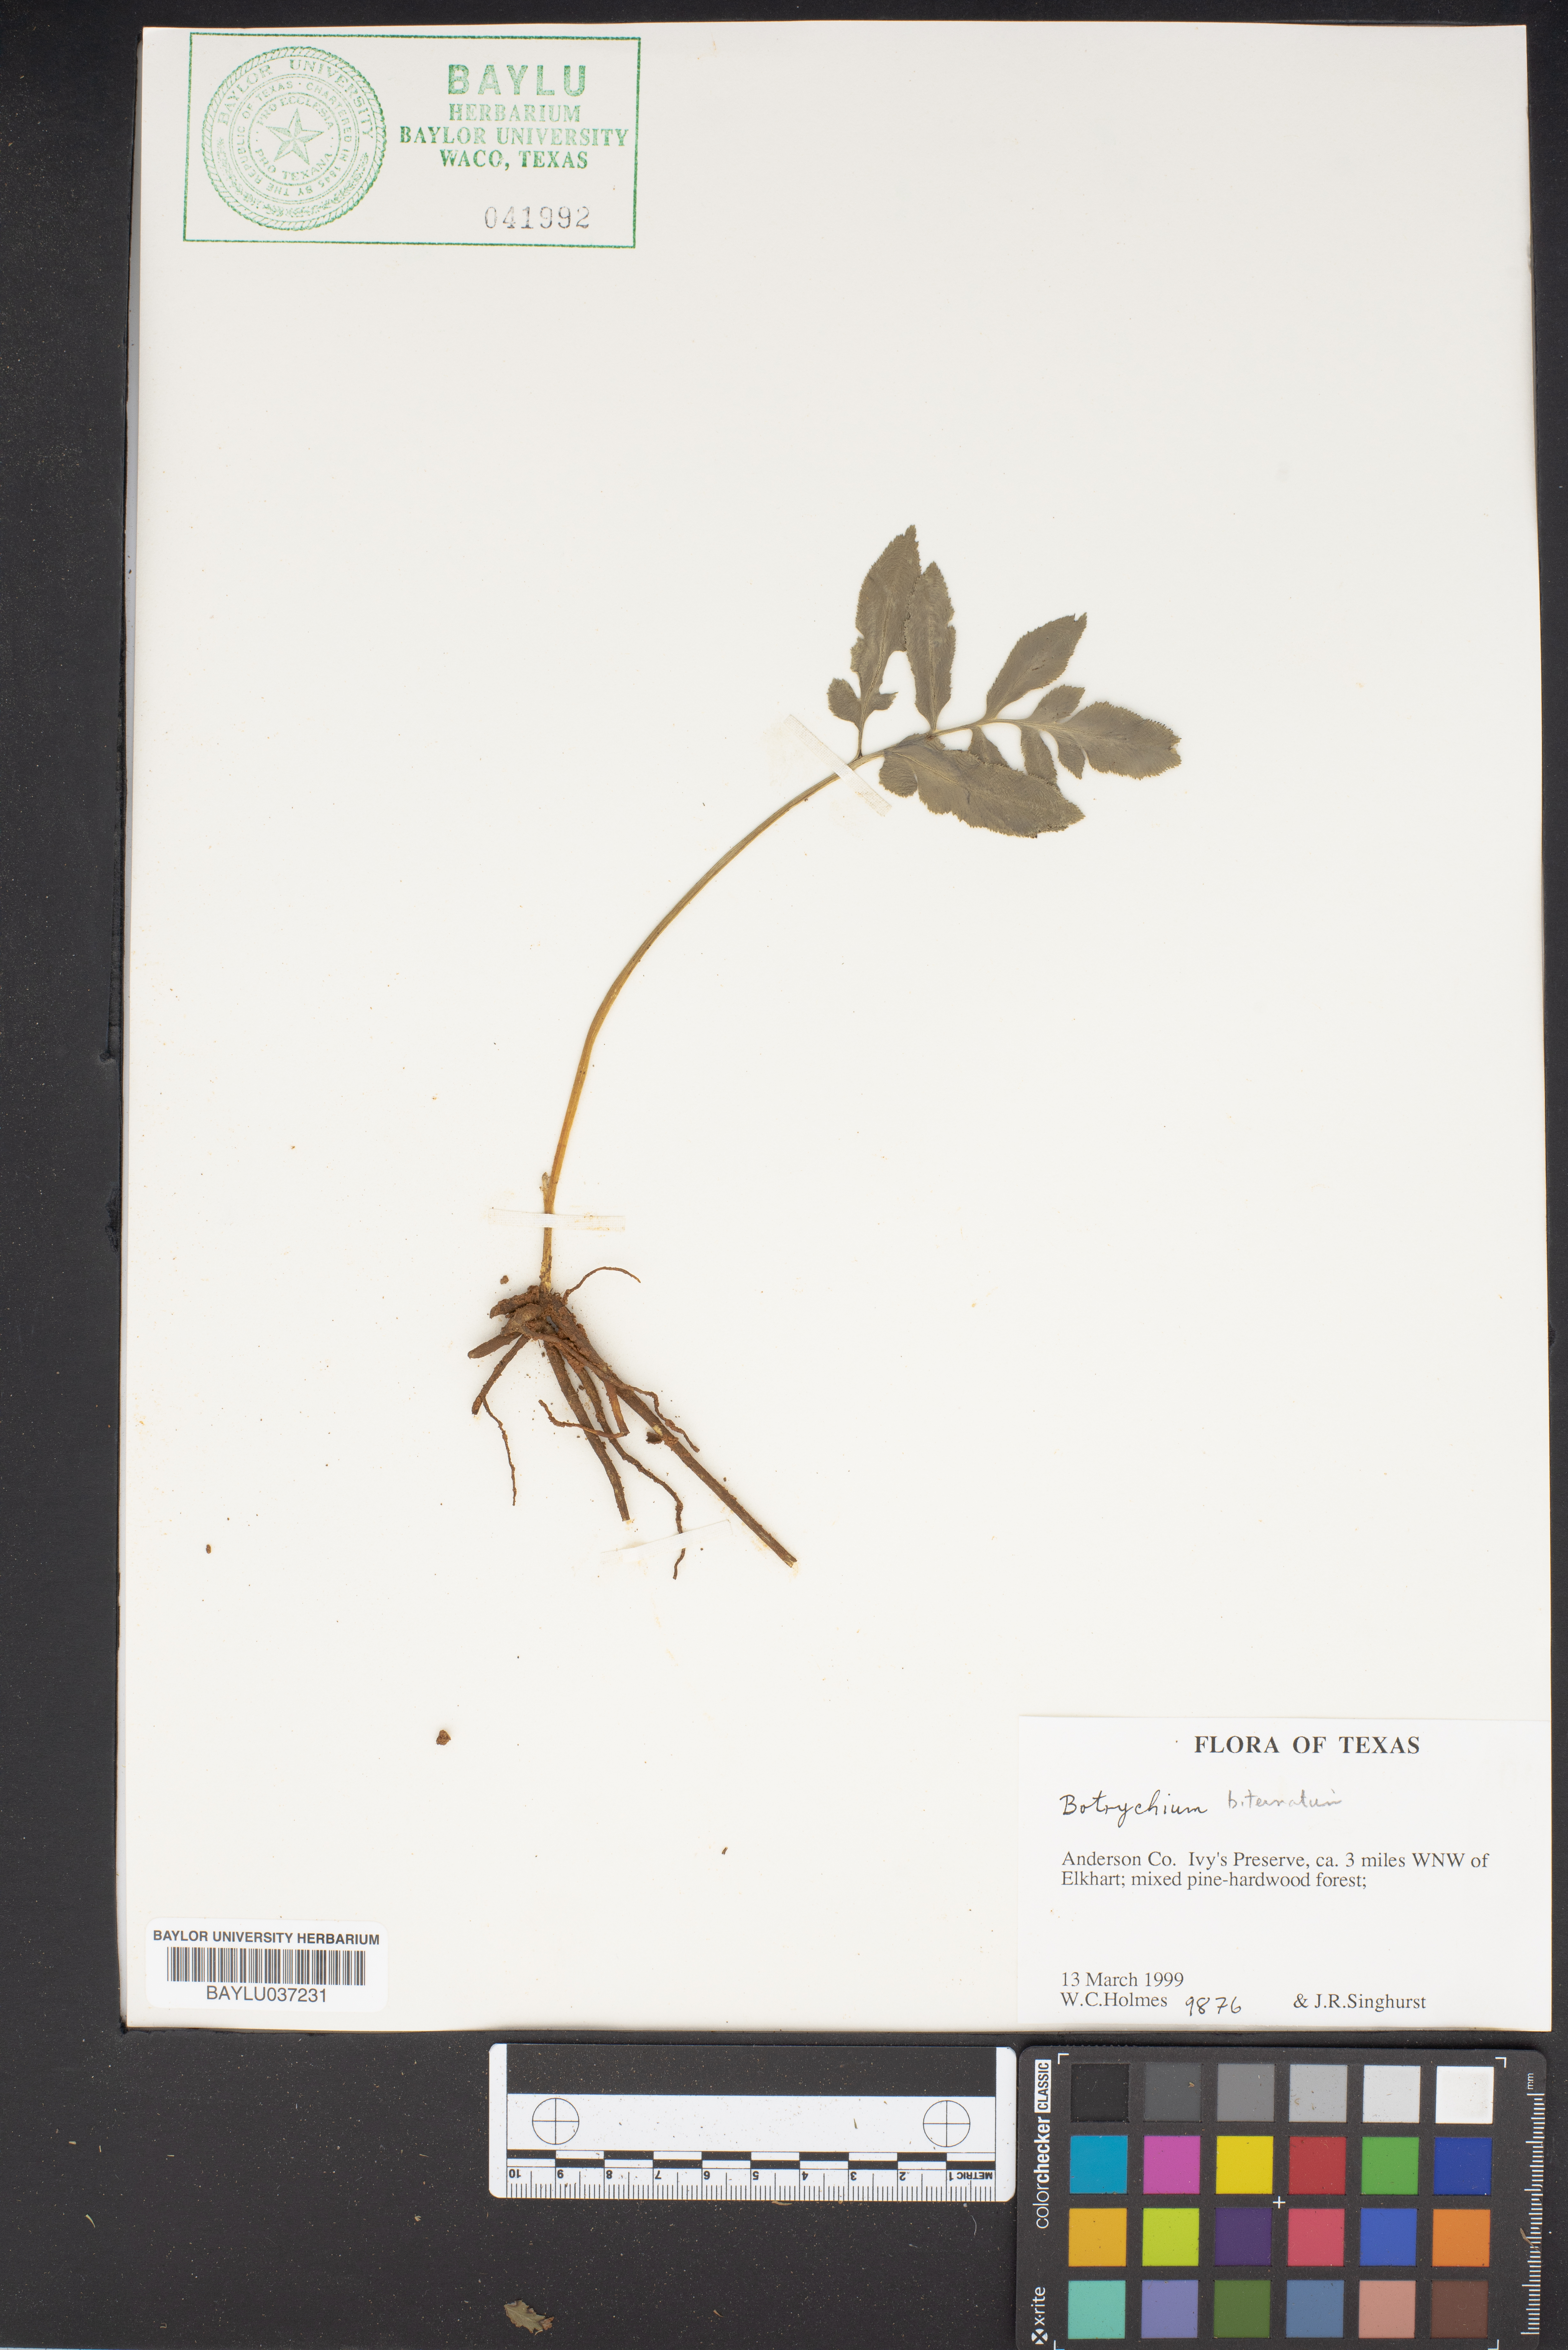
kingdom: Plantae
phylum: Tracheophyta
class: Polypodiopsida
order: Ophioglossales
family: Ophioglossaceae
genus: Sceptridium
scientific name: Sceptridium biternatum
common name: Sparse-lobed grapefern
